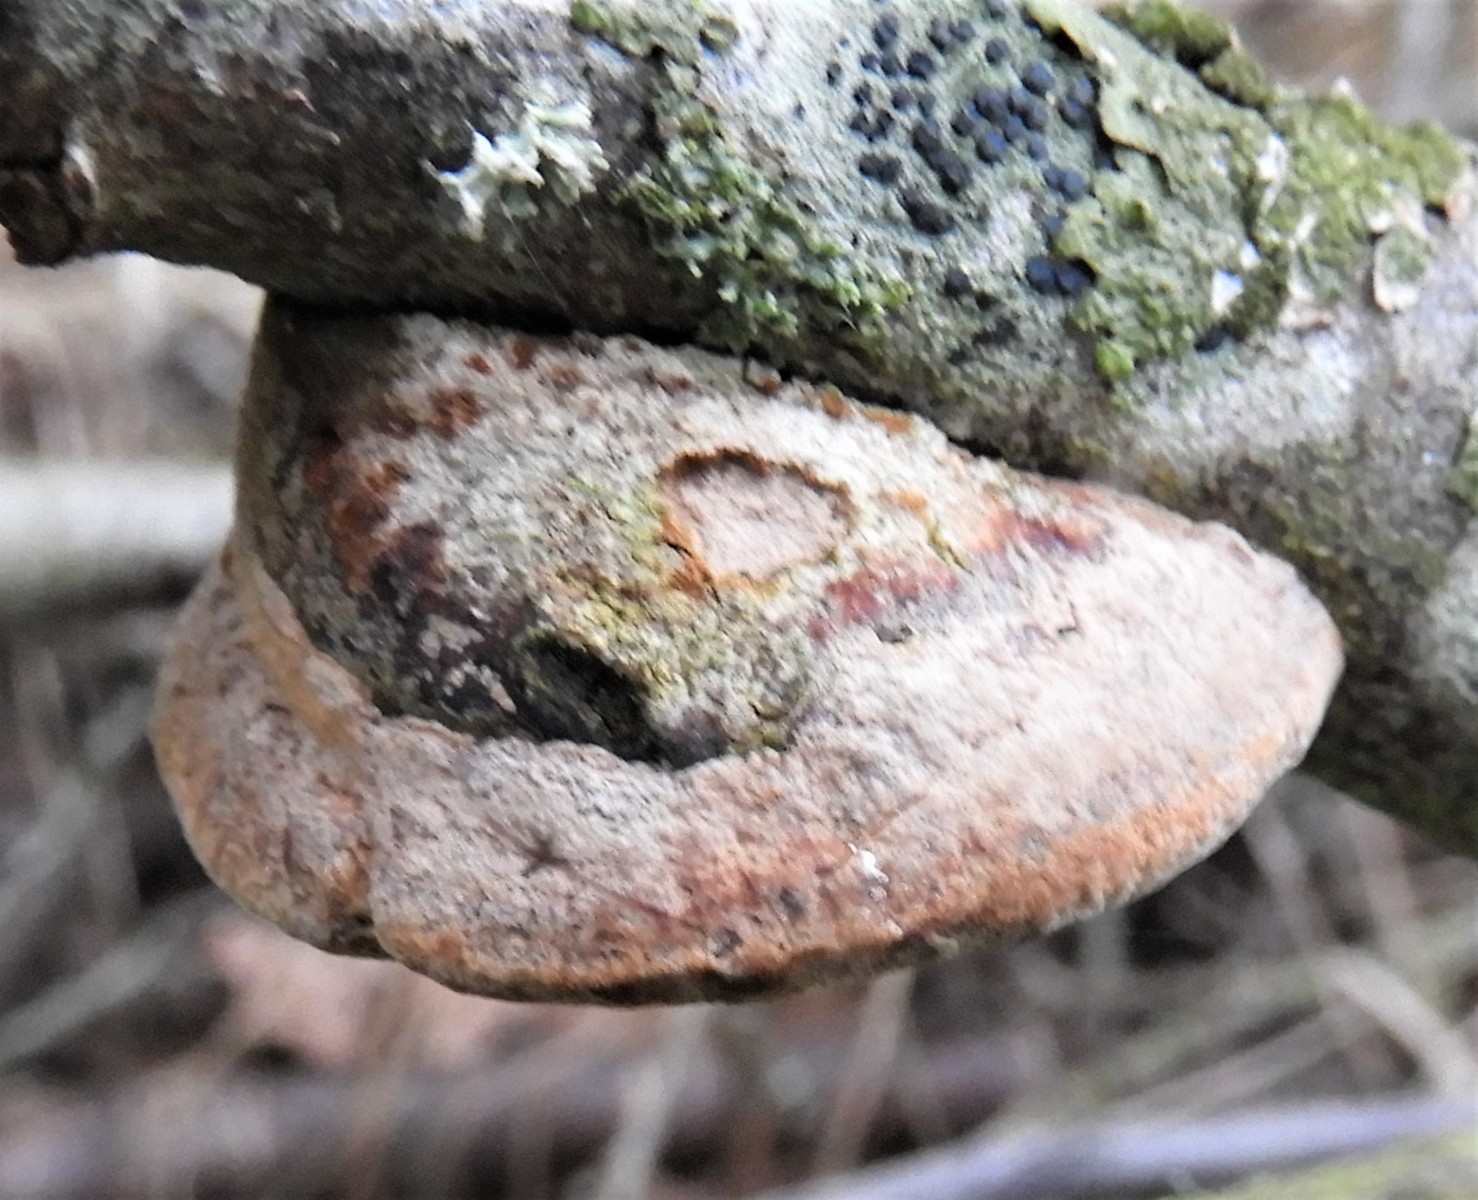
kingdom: Fungi
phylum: Basidiomycota
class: Agaricomycetes
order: Hymenochaetales
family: Hymenochaetaceae
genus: Phellinus
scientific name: Phellinus pomaceus
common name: blomme-ildporesvamp
